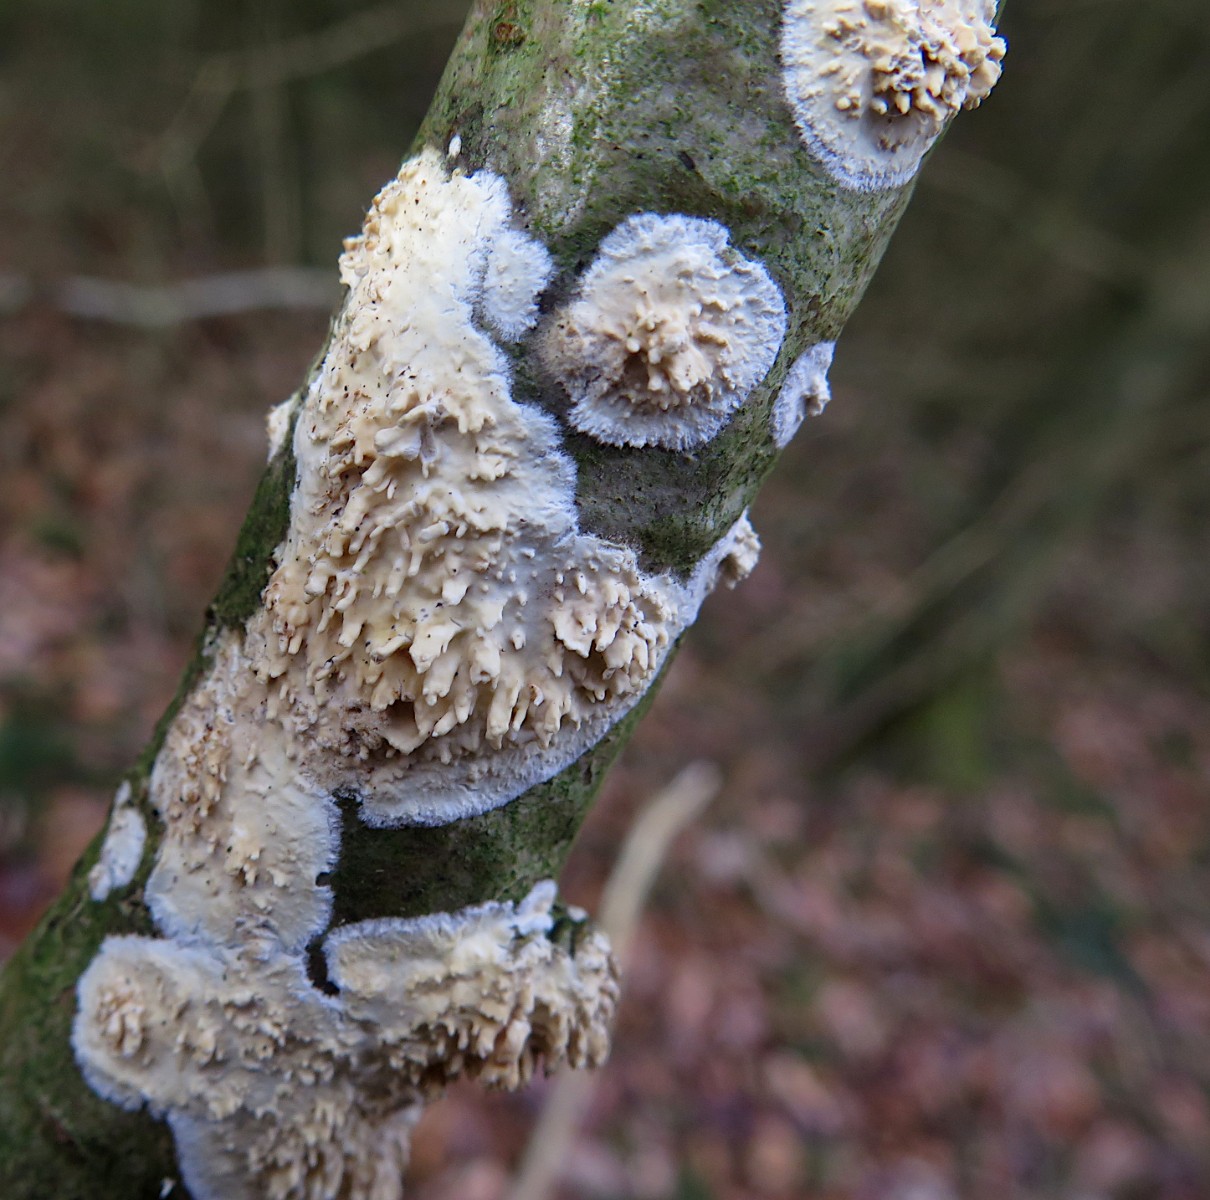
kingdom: Fungi
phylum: Basidiomycota
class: Agaricomycetes
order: Hymenochaetales
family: Schizoporaceae
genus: Xylodon
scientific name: Xylodon radula
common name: grovtandet kalkskind
